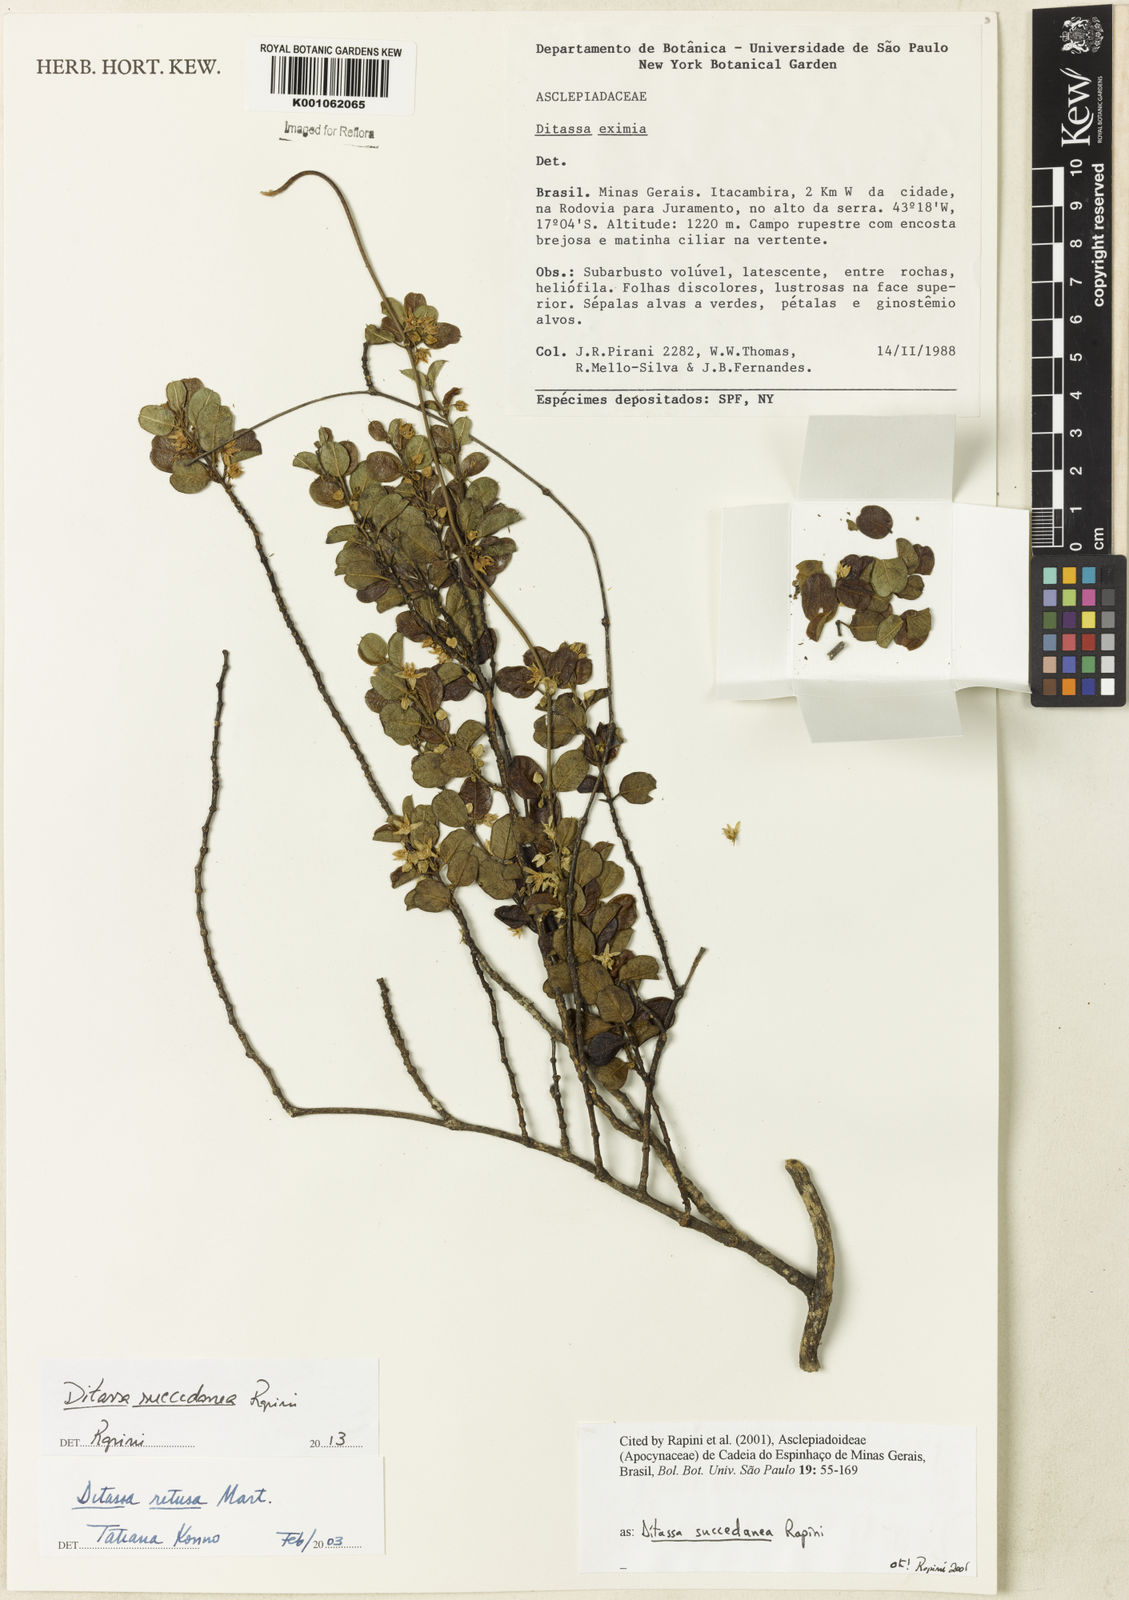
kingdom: Plantae
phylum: Tracheophyta
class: Magnoliopsida
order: Gentianales
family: Apocynaceae
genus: Ditassa
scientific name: Ditassa succedanea
